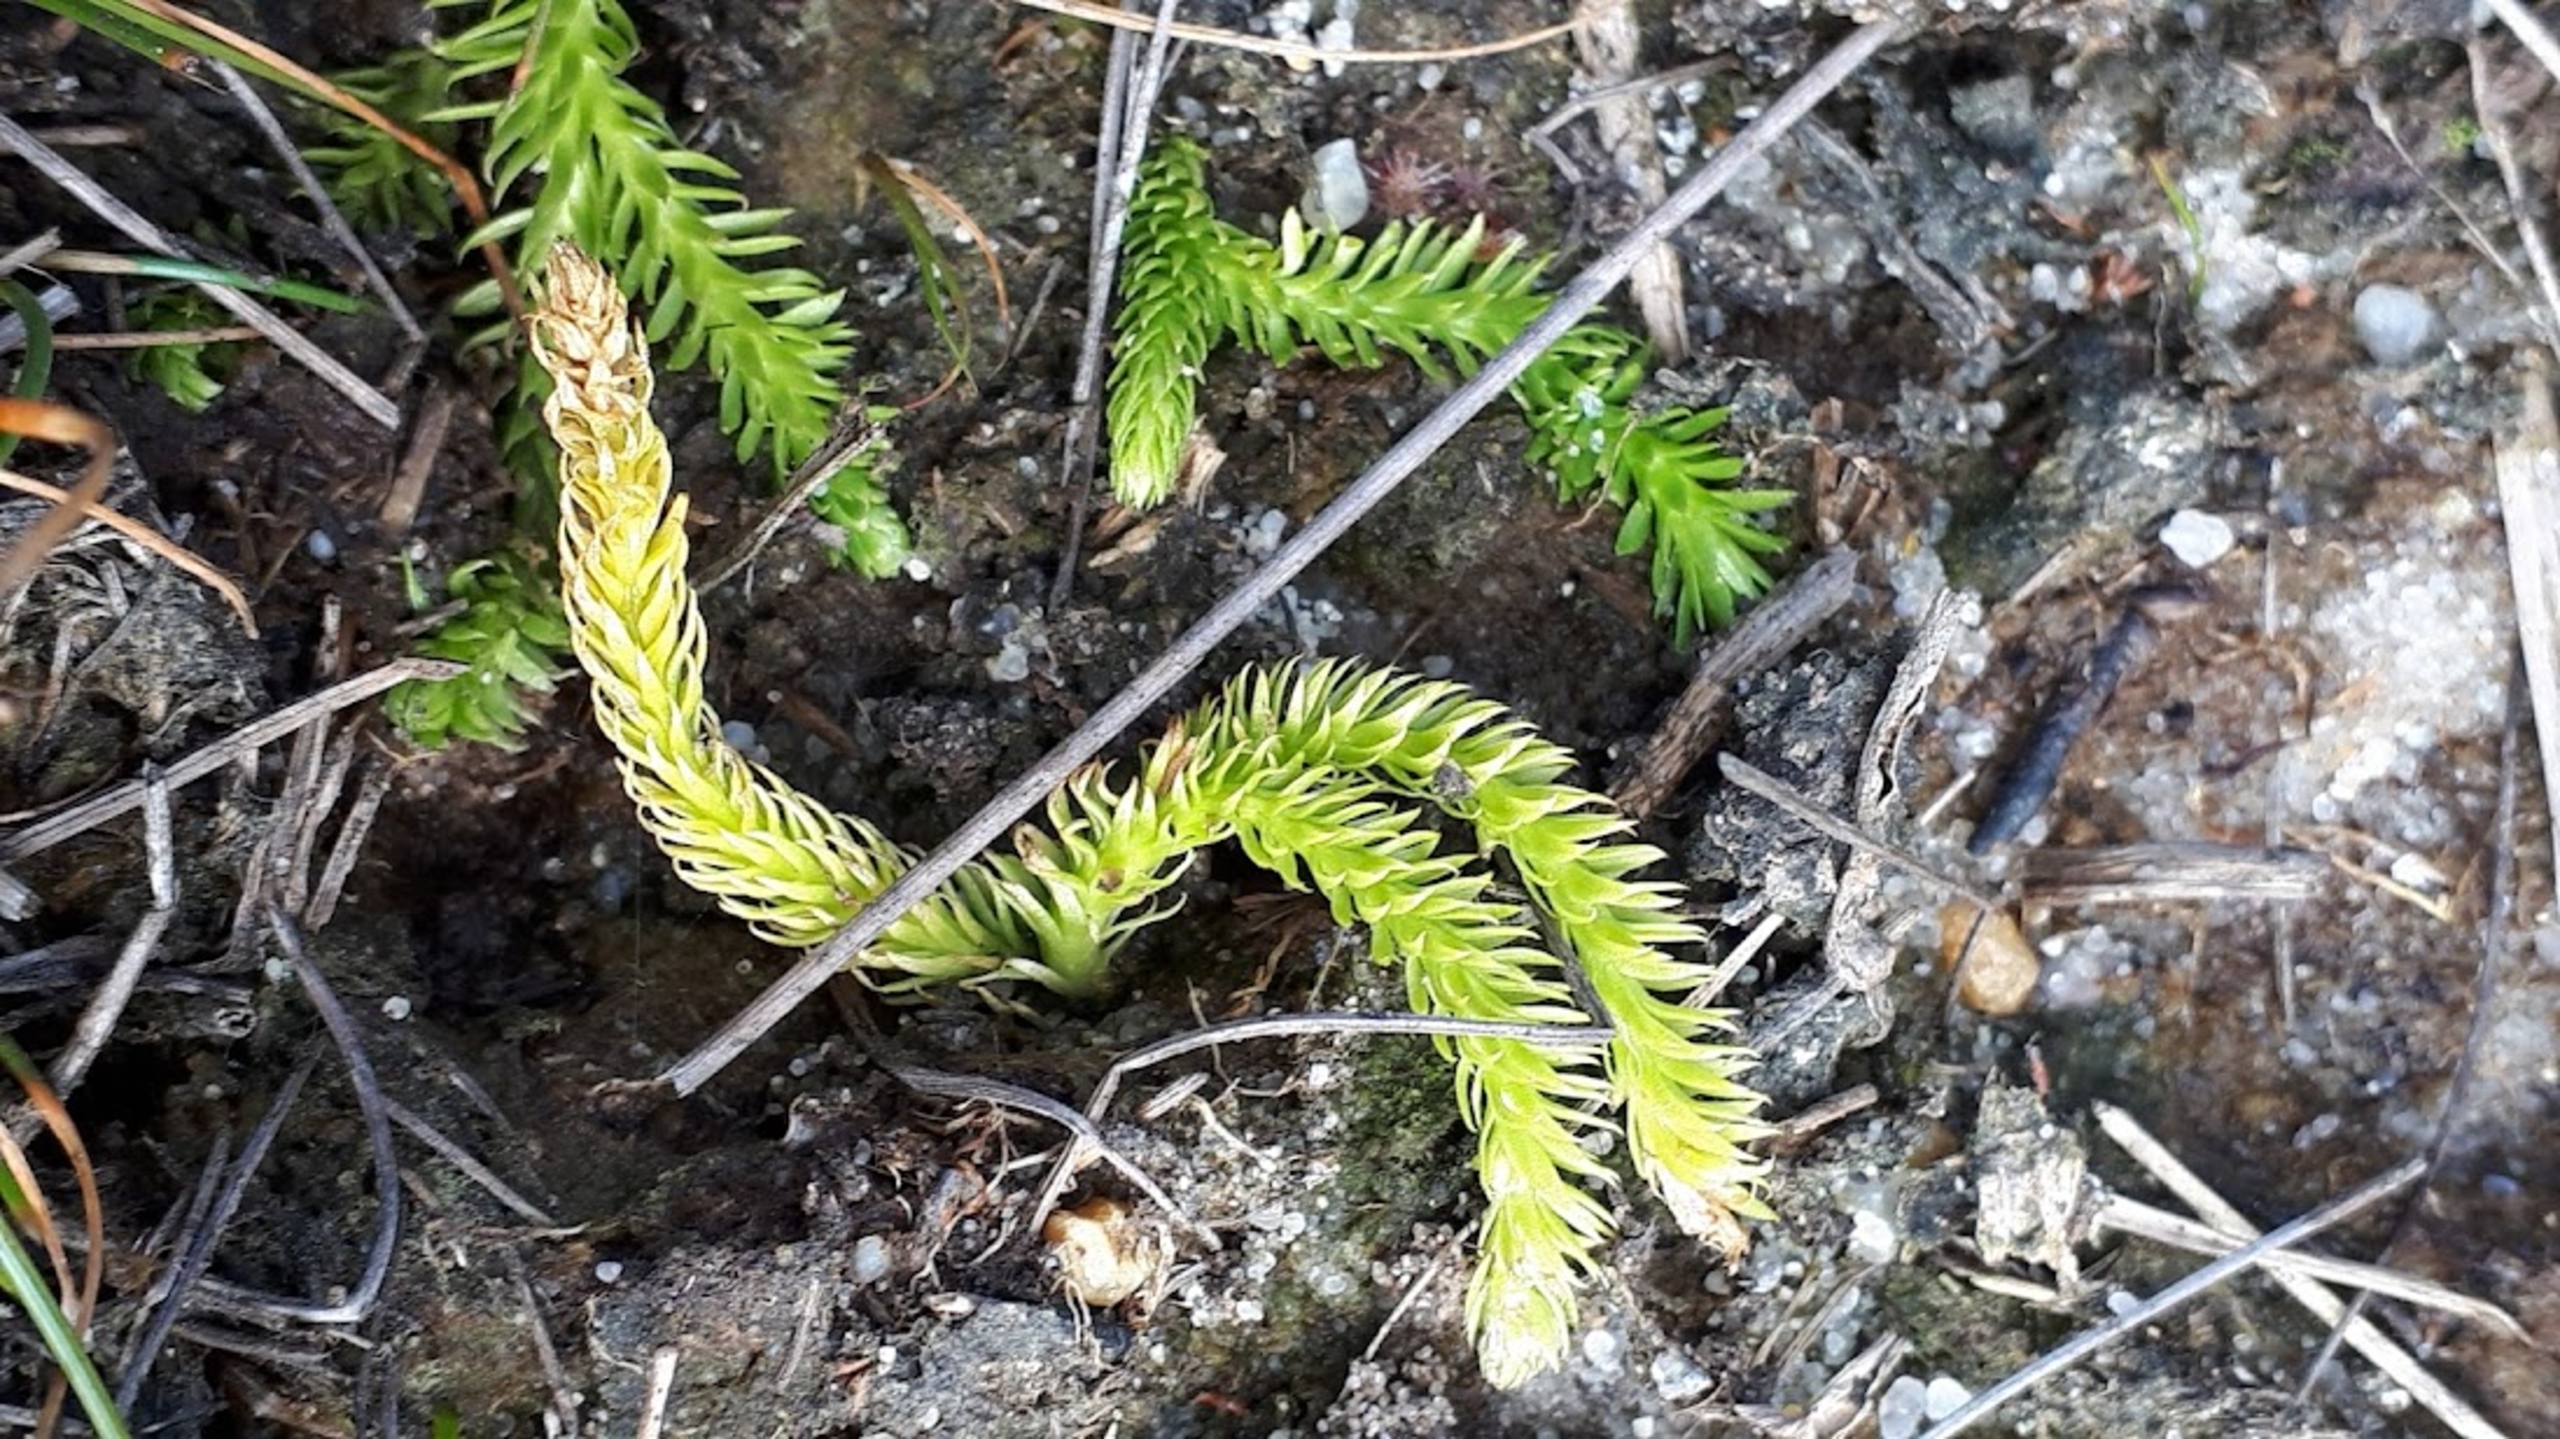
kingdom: Plantae
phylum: Tracheophyta
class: Lycopodiopsida
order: Lycopodiales
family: Lycopodiaceae
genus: Lycopodiella
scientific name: Lycopodiella inundata
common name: Liden ulvefod
